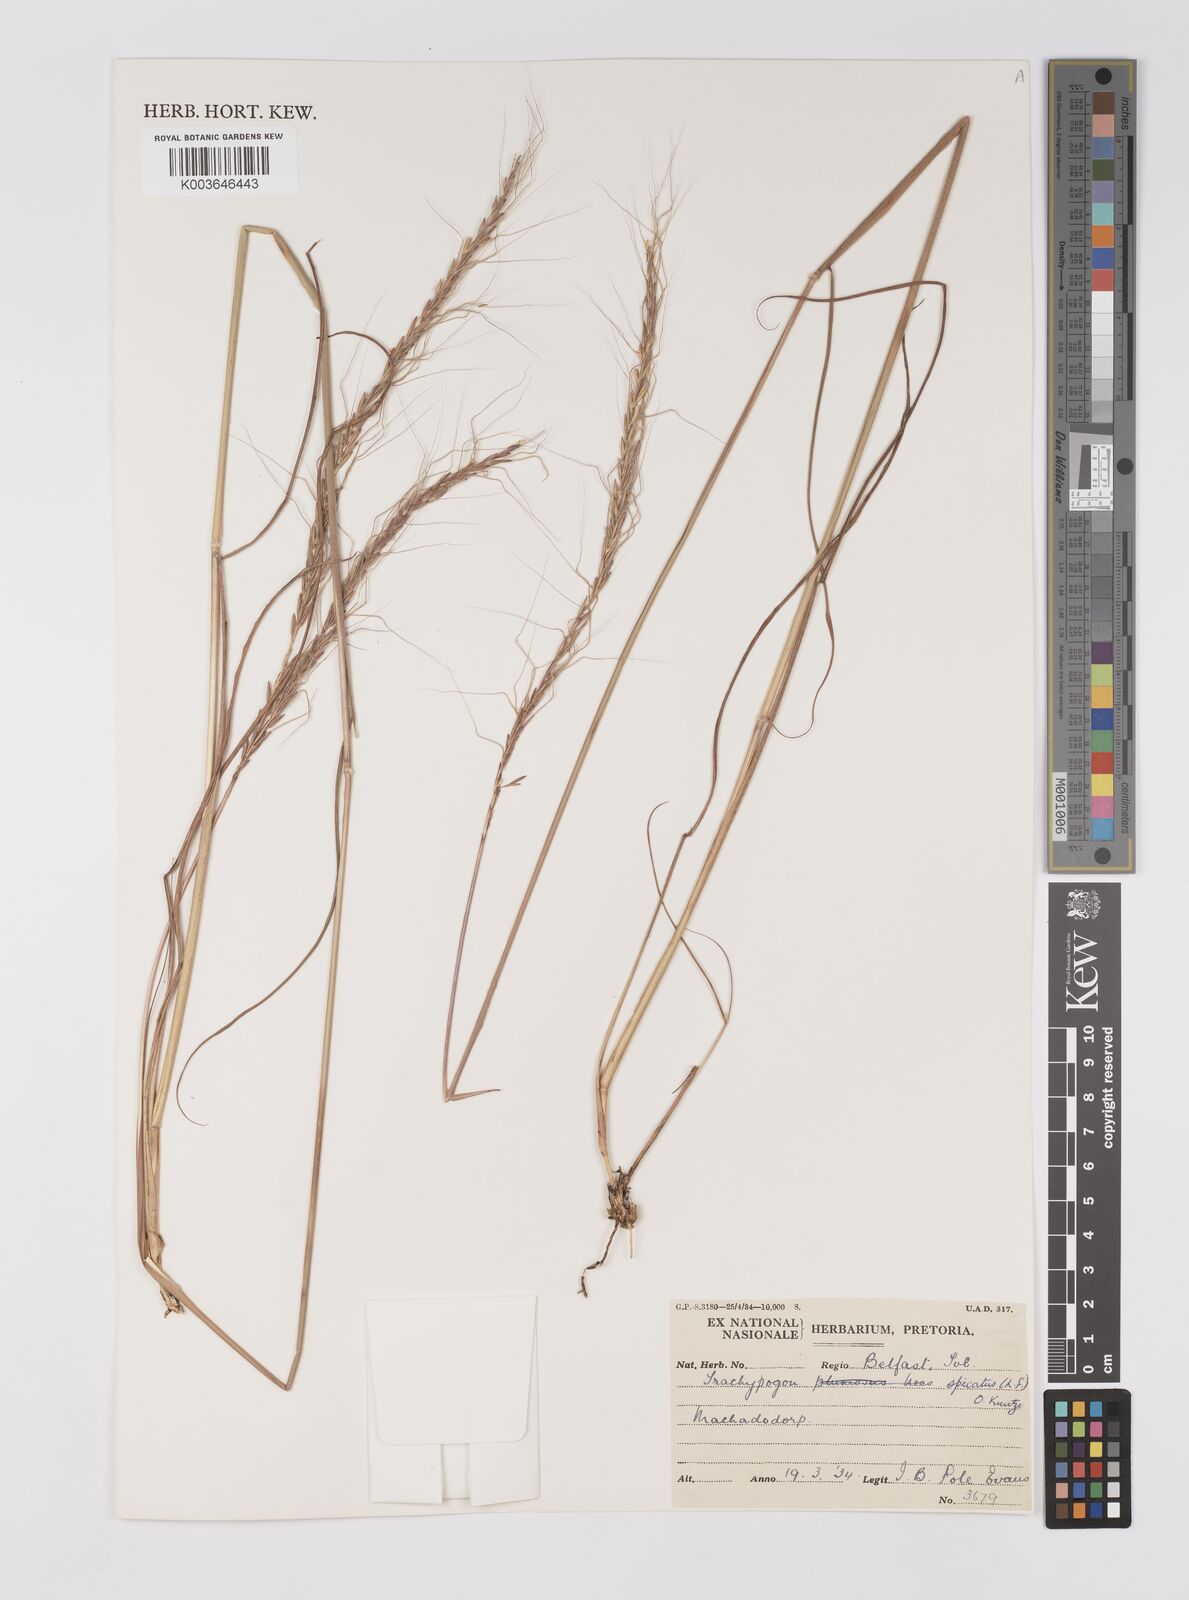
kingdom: Plantae
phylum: Tracheophyta
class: Liliopsida
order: Poales
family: Poaceae
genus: Trachypogon
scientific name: Trachypogon spicatus
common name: Crinkle-awn
